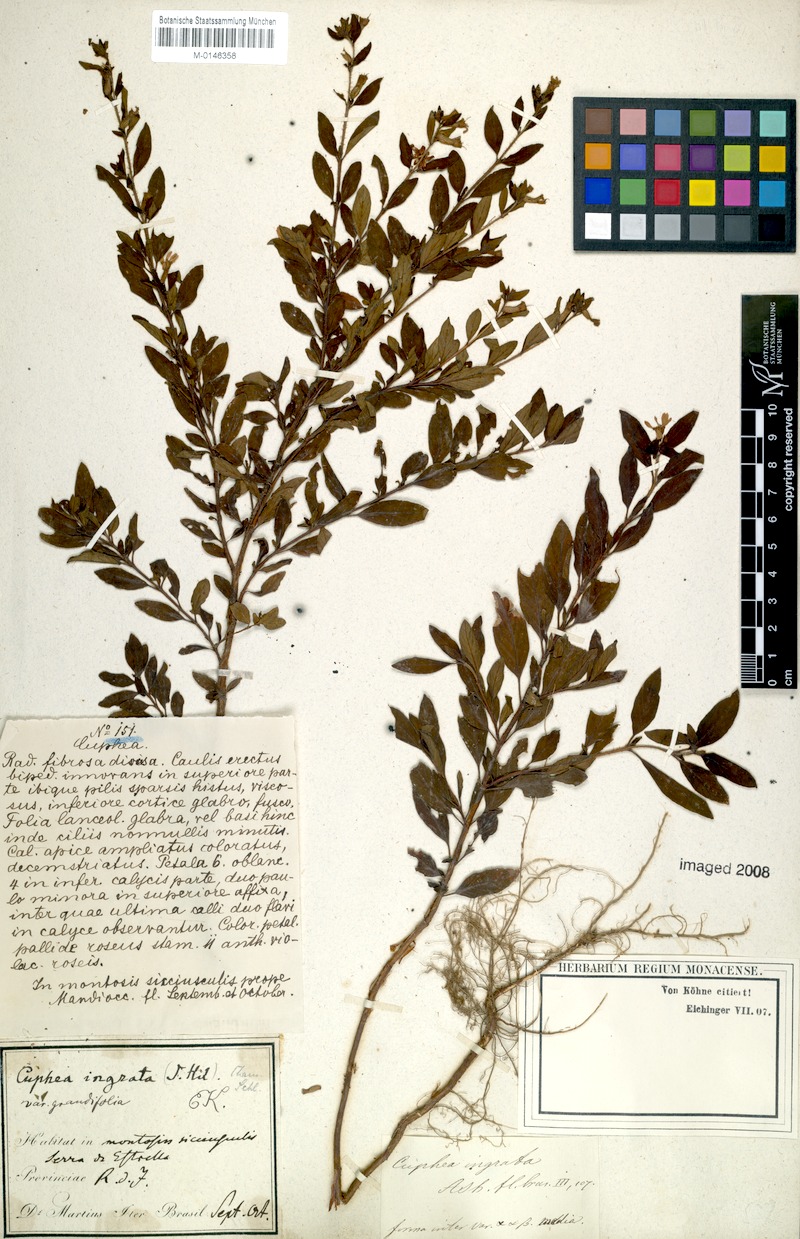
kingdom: Plantae
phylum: Tracheophyta
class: Magnoliopsida
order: Myrtales
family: Lythraceae
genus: Cuphea
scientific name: Cuphea ingrata
